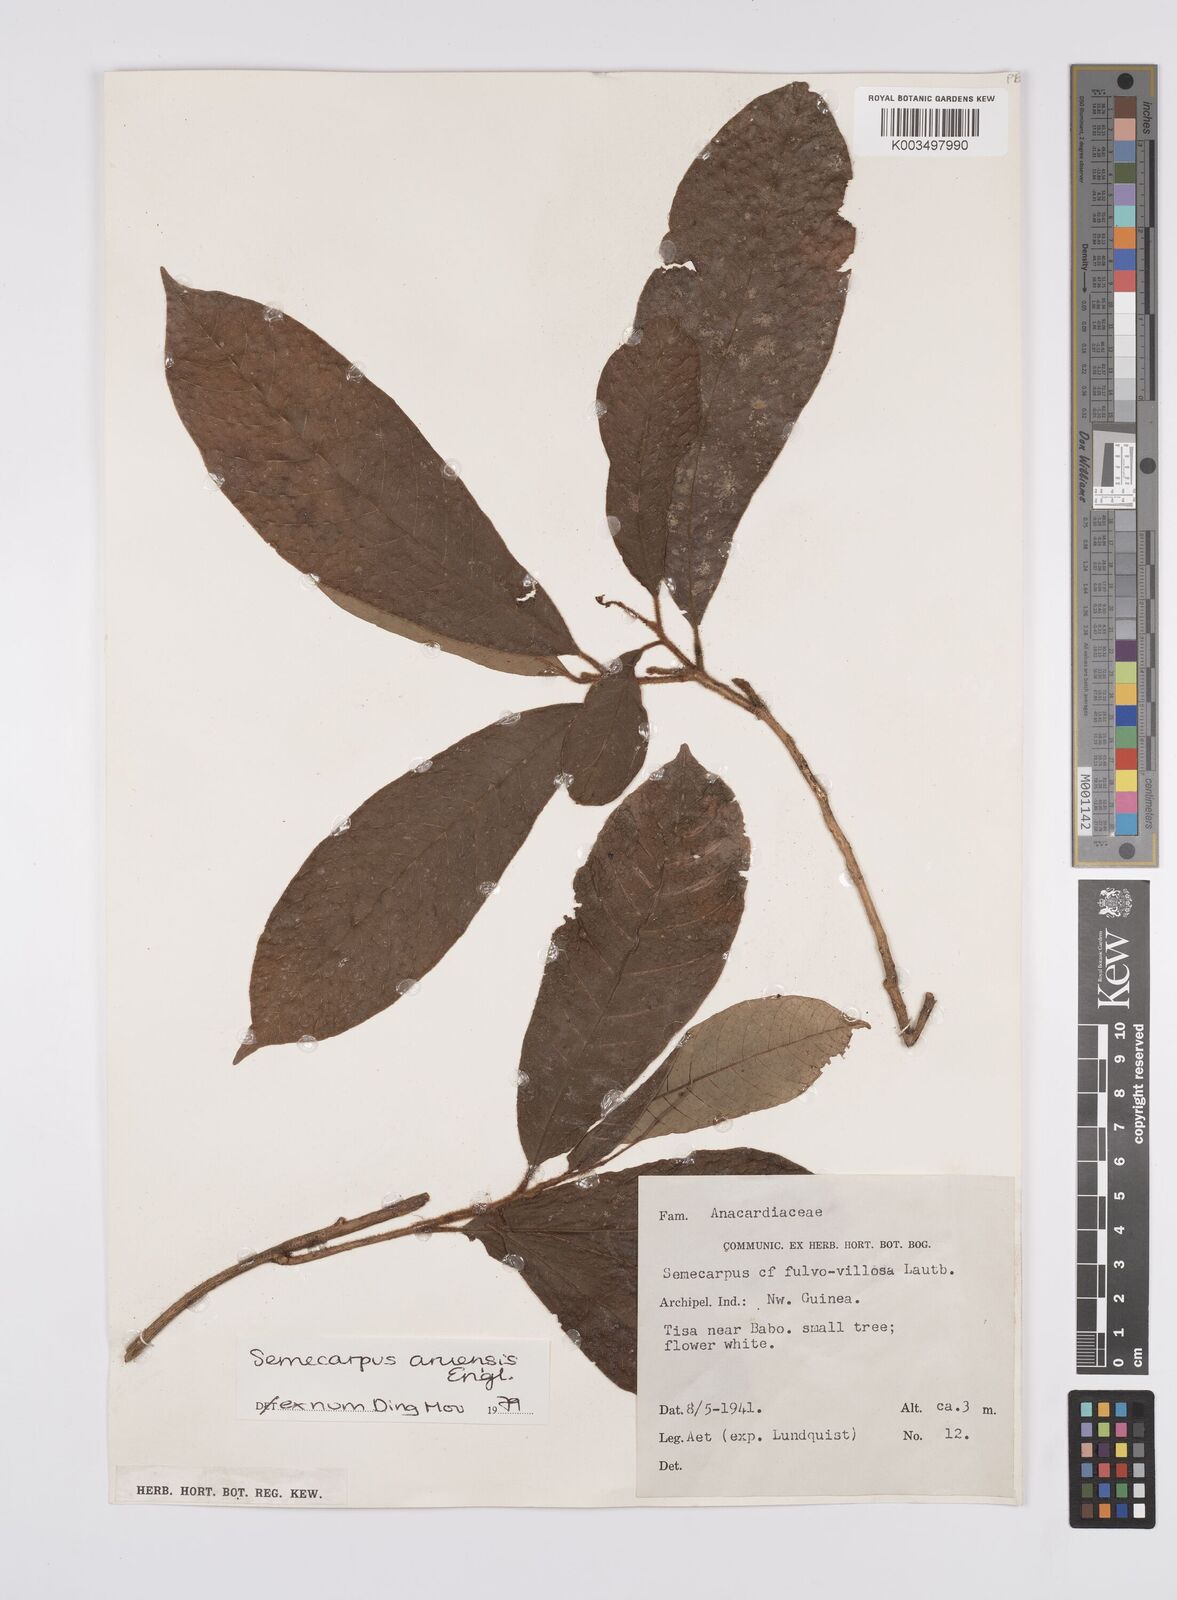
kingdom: Plantae
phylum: Tracheophyta
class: Magnoliopsida
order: Sapindales
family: Anacardiaceae
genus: Semecarpus
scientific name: Semecarpus aruensis
